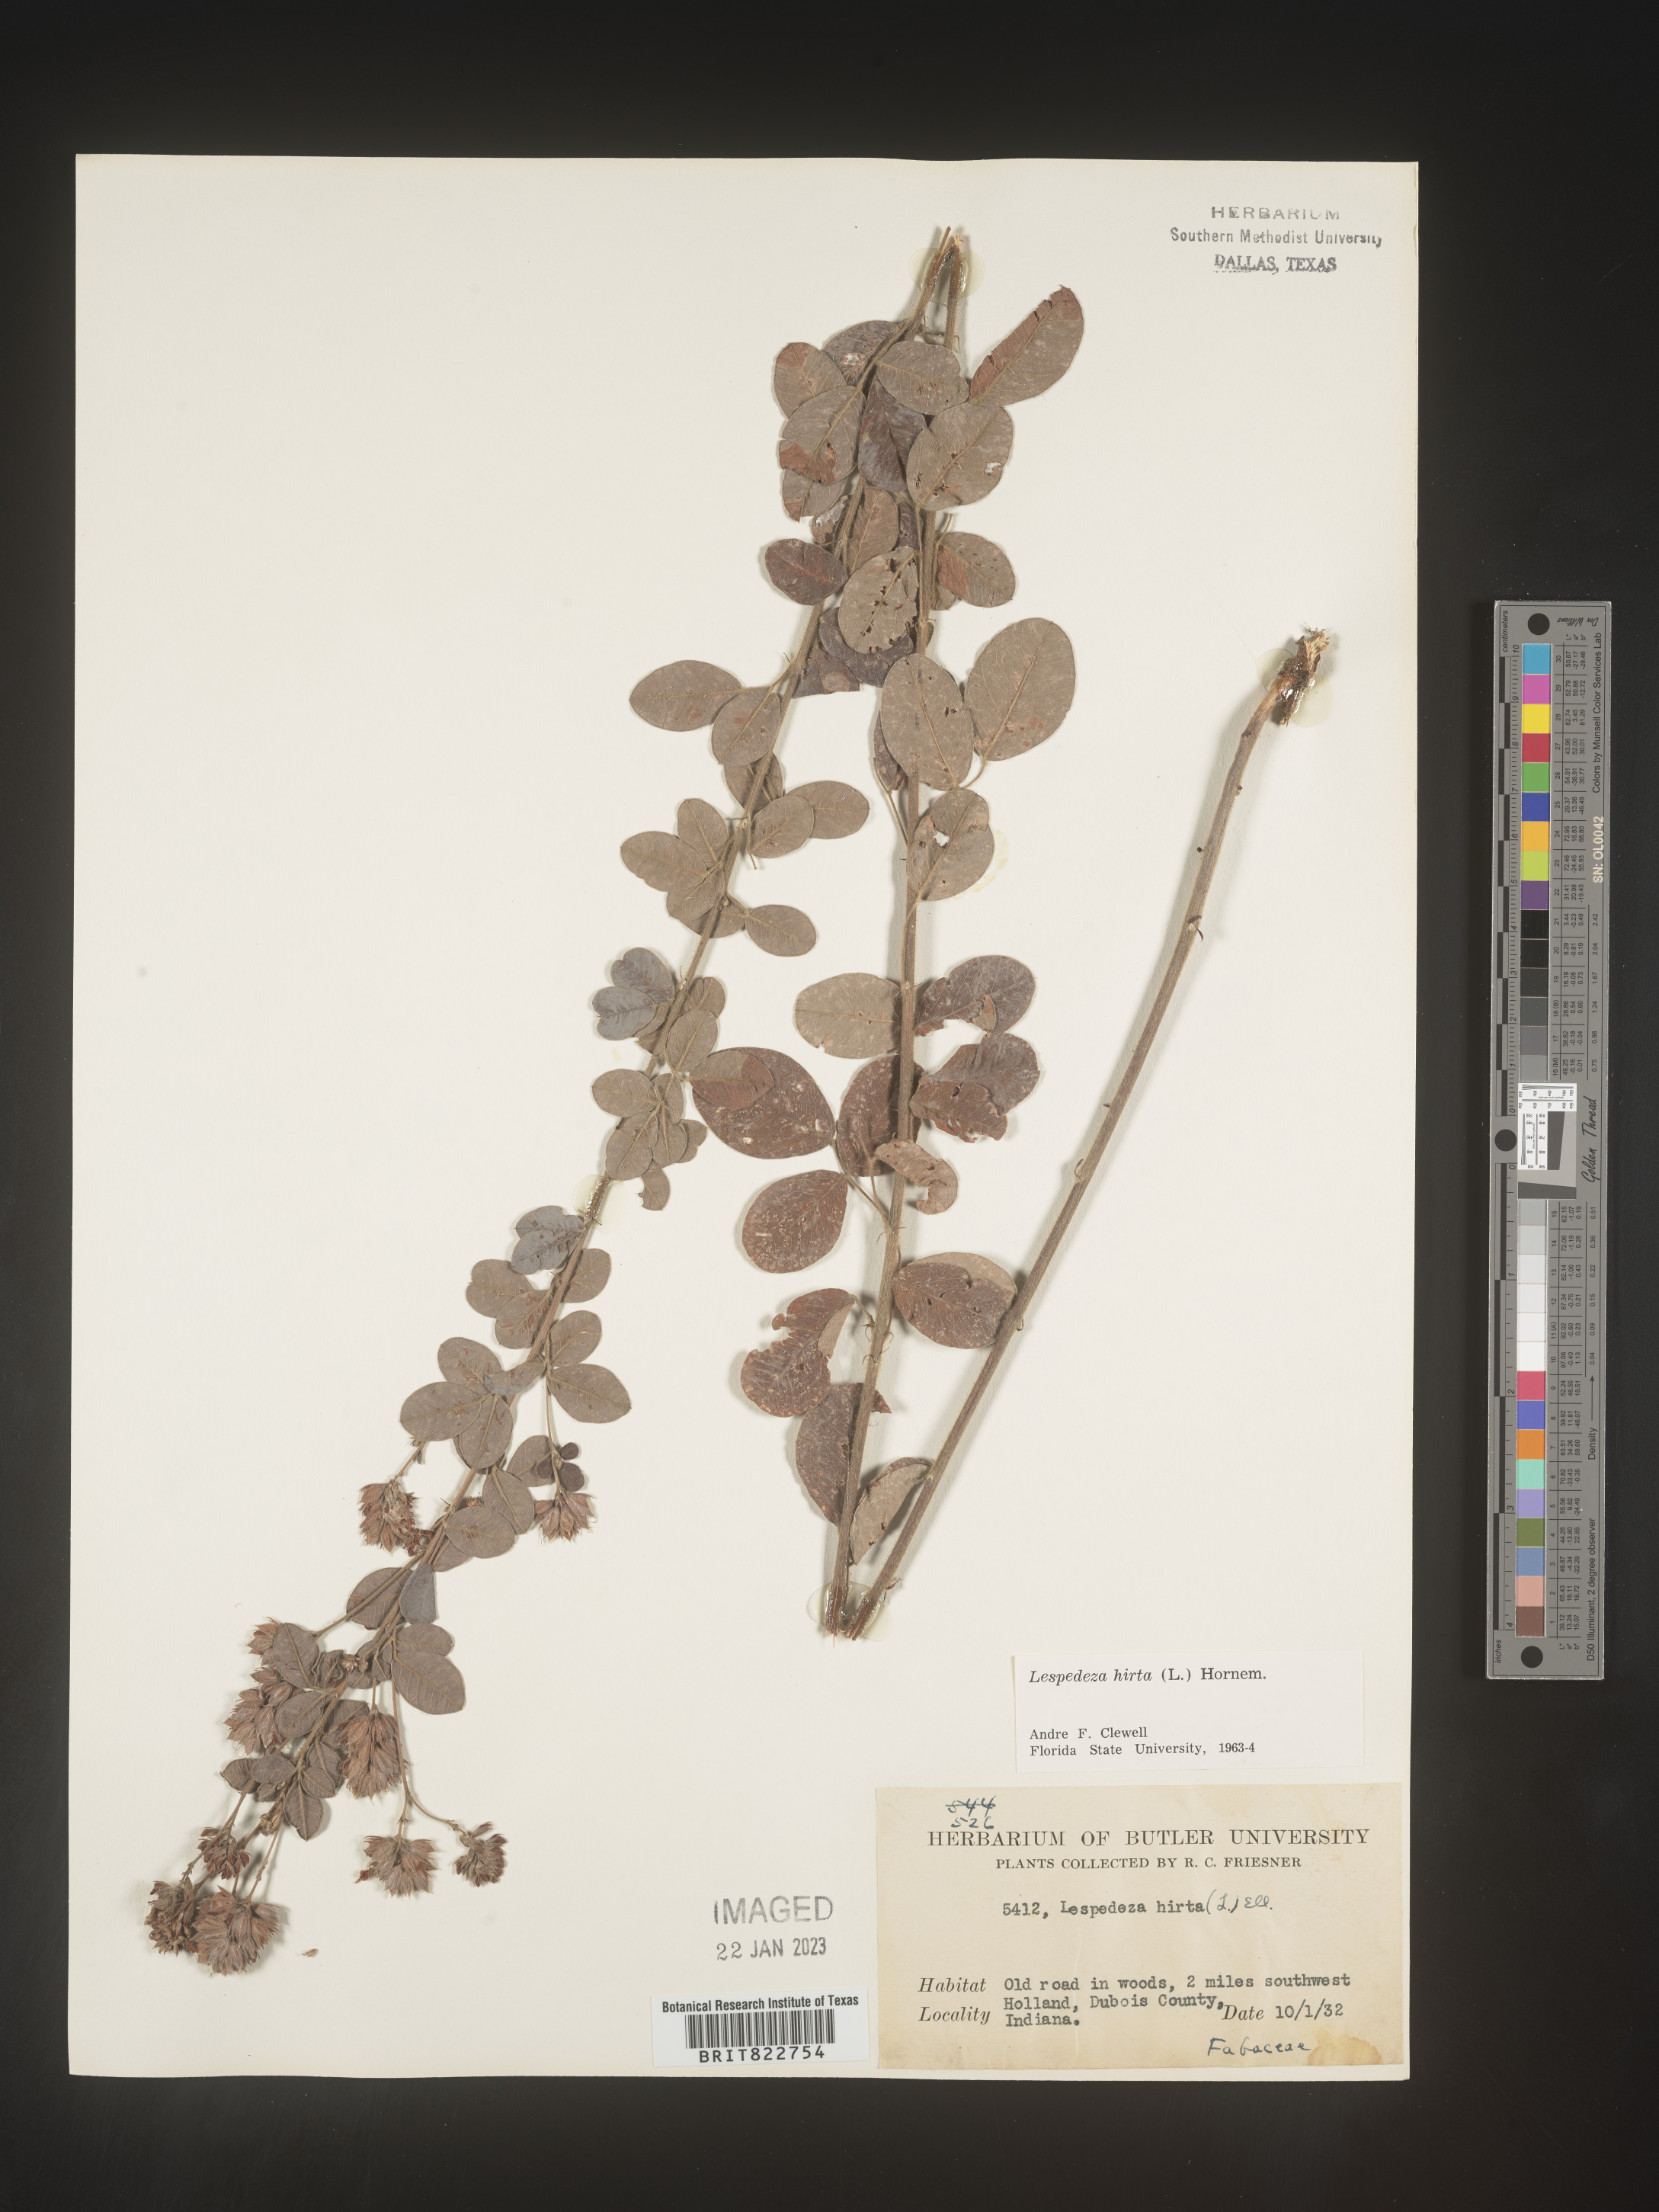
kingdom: Plantae
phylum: Tracheophyta
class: Magnoliopsida
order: Fabales
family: Fabaceae
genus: Lespedeza
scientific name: Lespedeza hirta
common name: Hairy lespedeza
